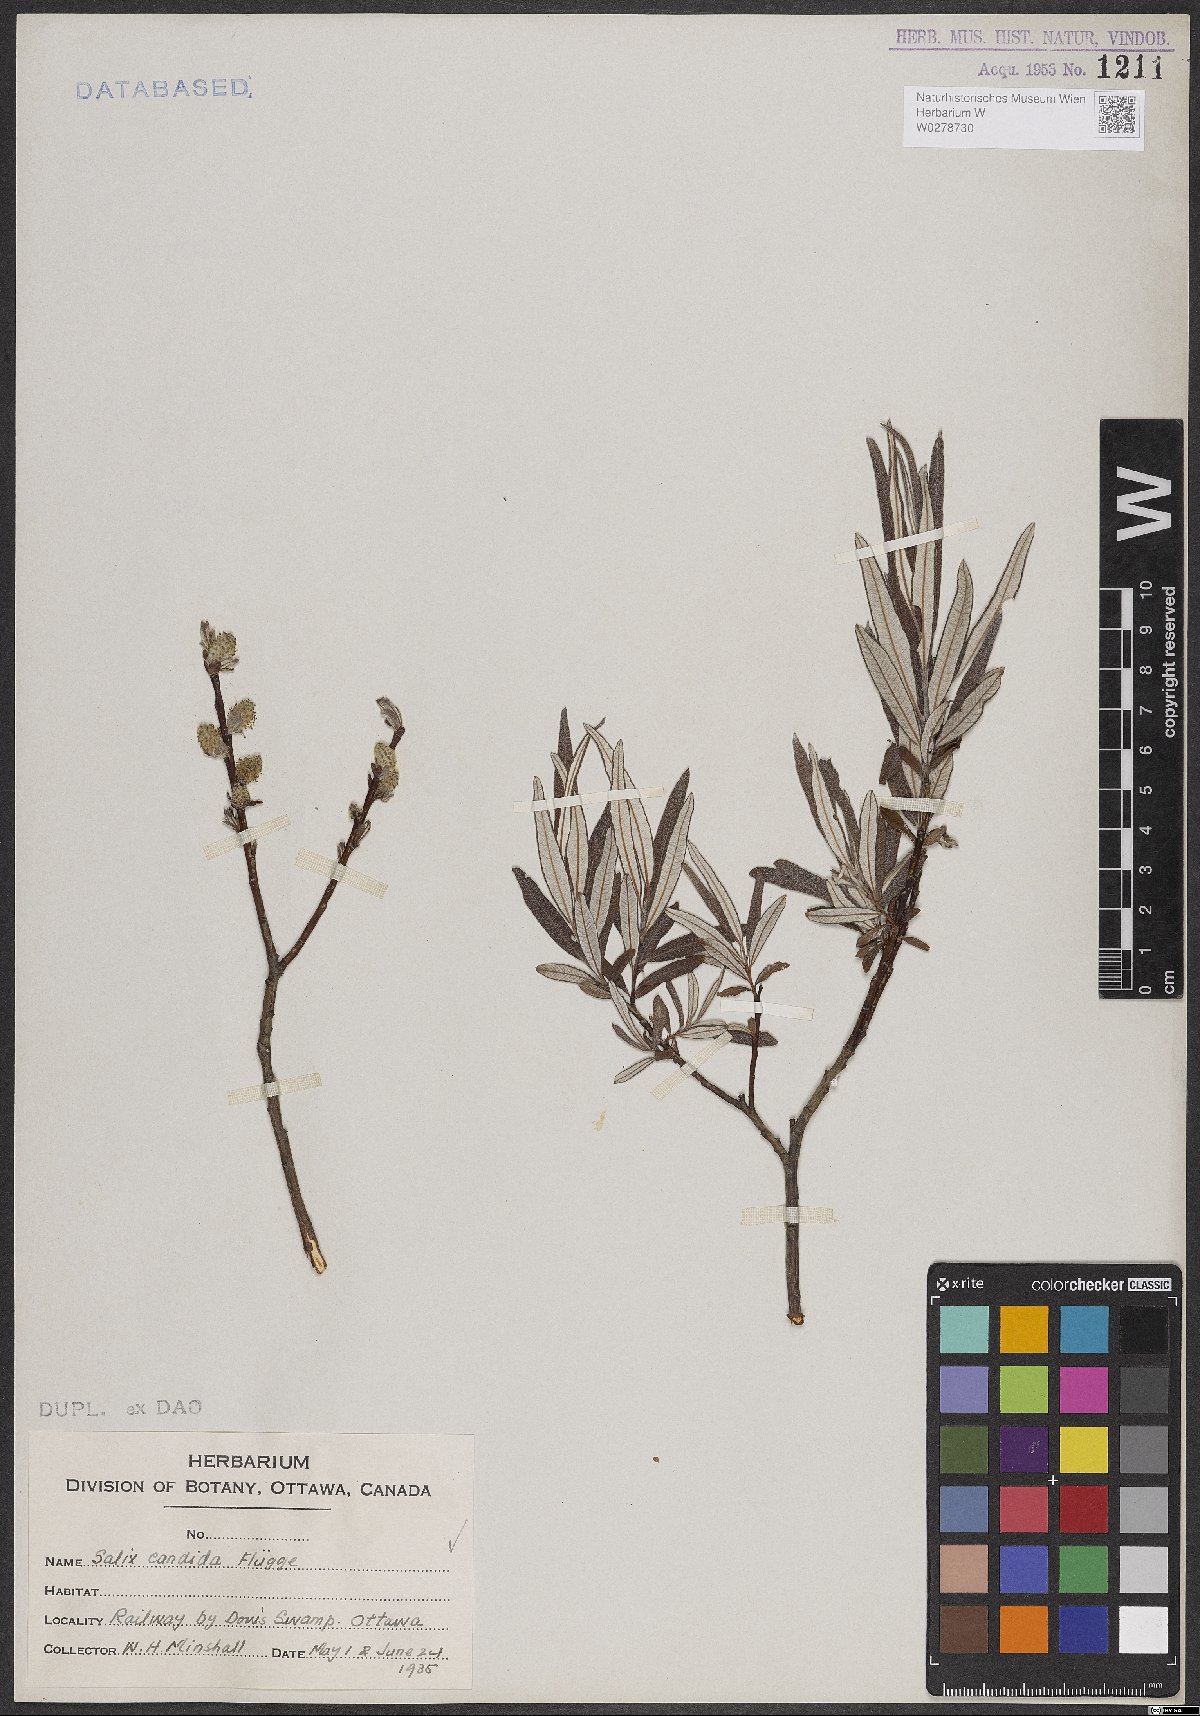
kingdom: Plantae
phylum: Tracheophyta
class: Magnoliopsida
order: Malpighiales
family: Salicaceae
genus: Salix
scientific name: Salix candida
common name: Hoary willow
